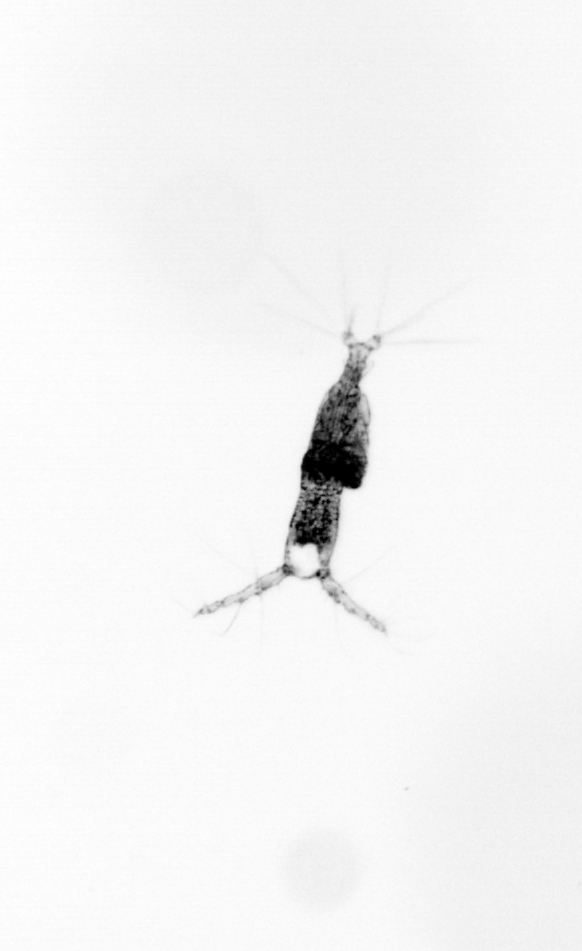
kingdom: Animalia
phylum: Arthropoda
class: Copepoda
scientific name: Copepoda
